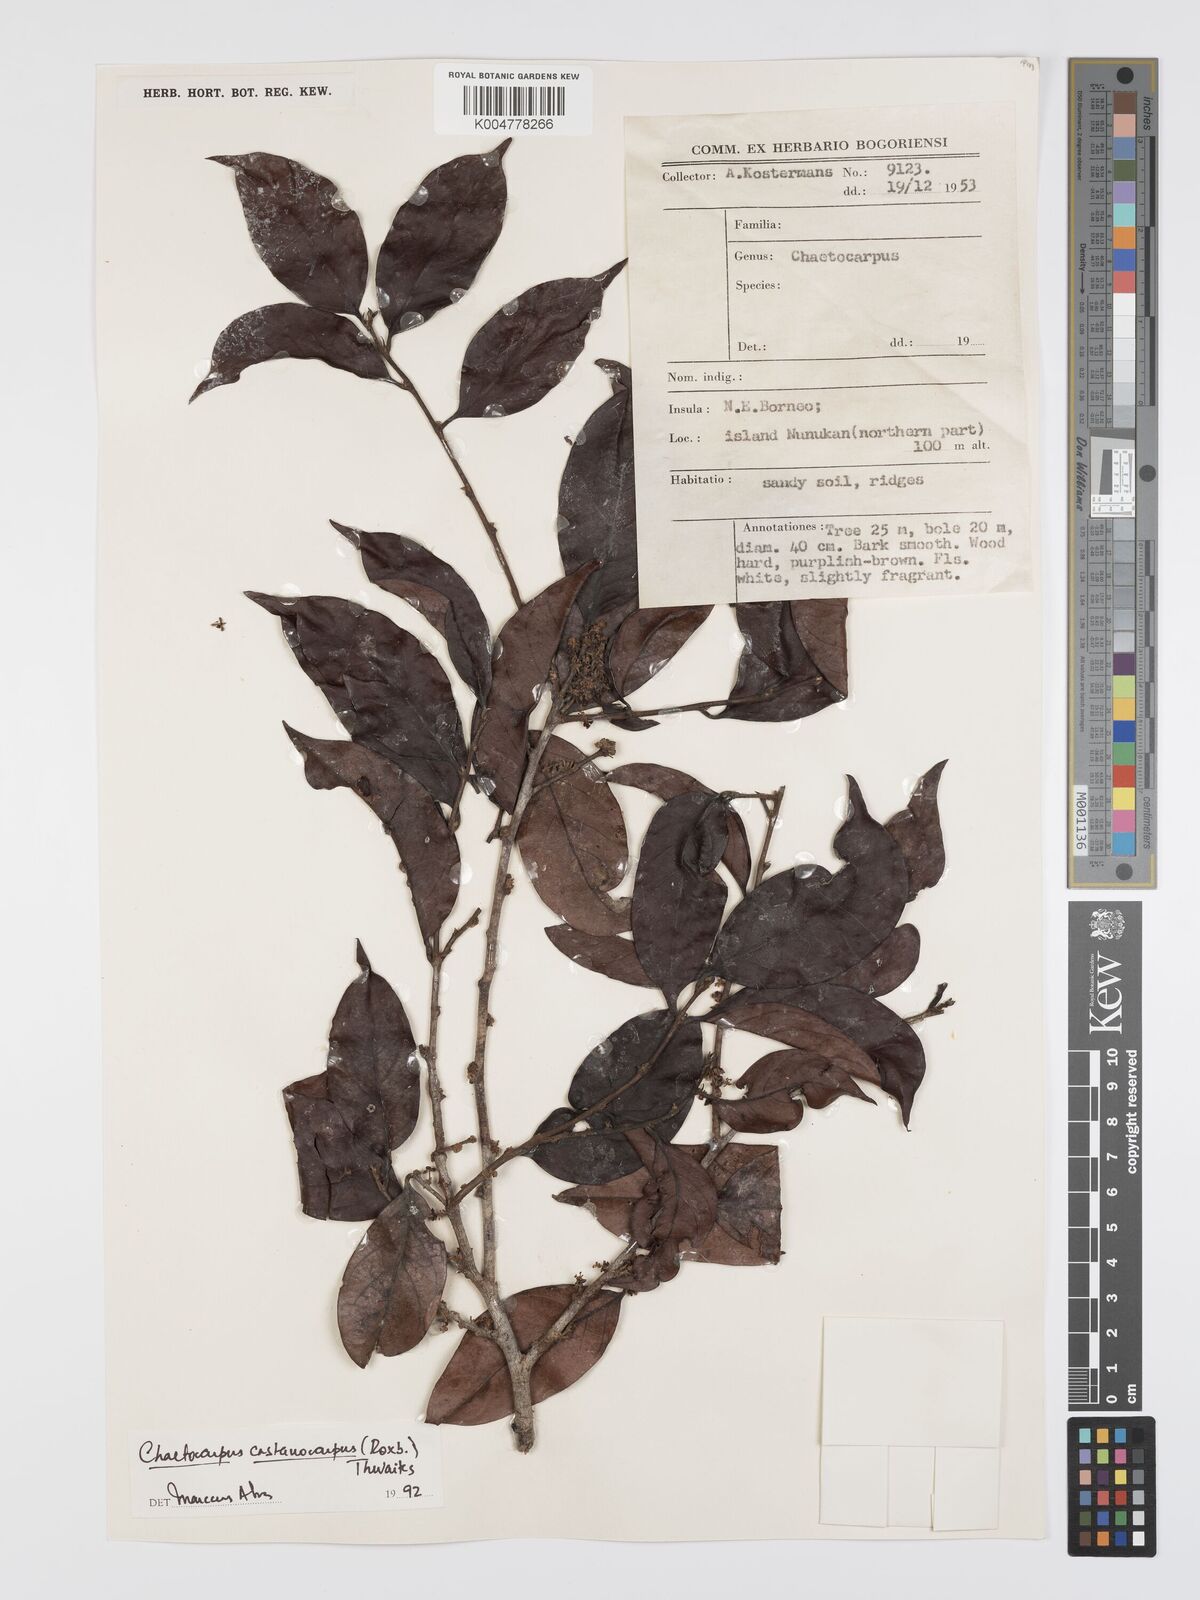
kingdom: Plantae
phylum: Tracheophyta
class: Magnoliopsida
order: Malpighiales
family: Peraceae
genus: Chaetocarpus
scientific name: Chaetocarpus castanocarpus
